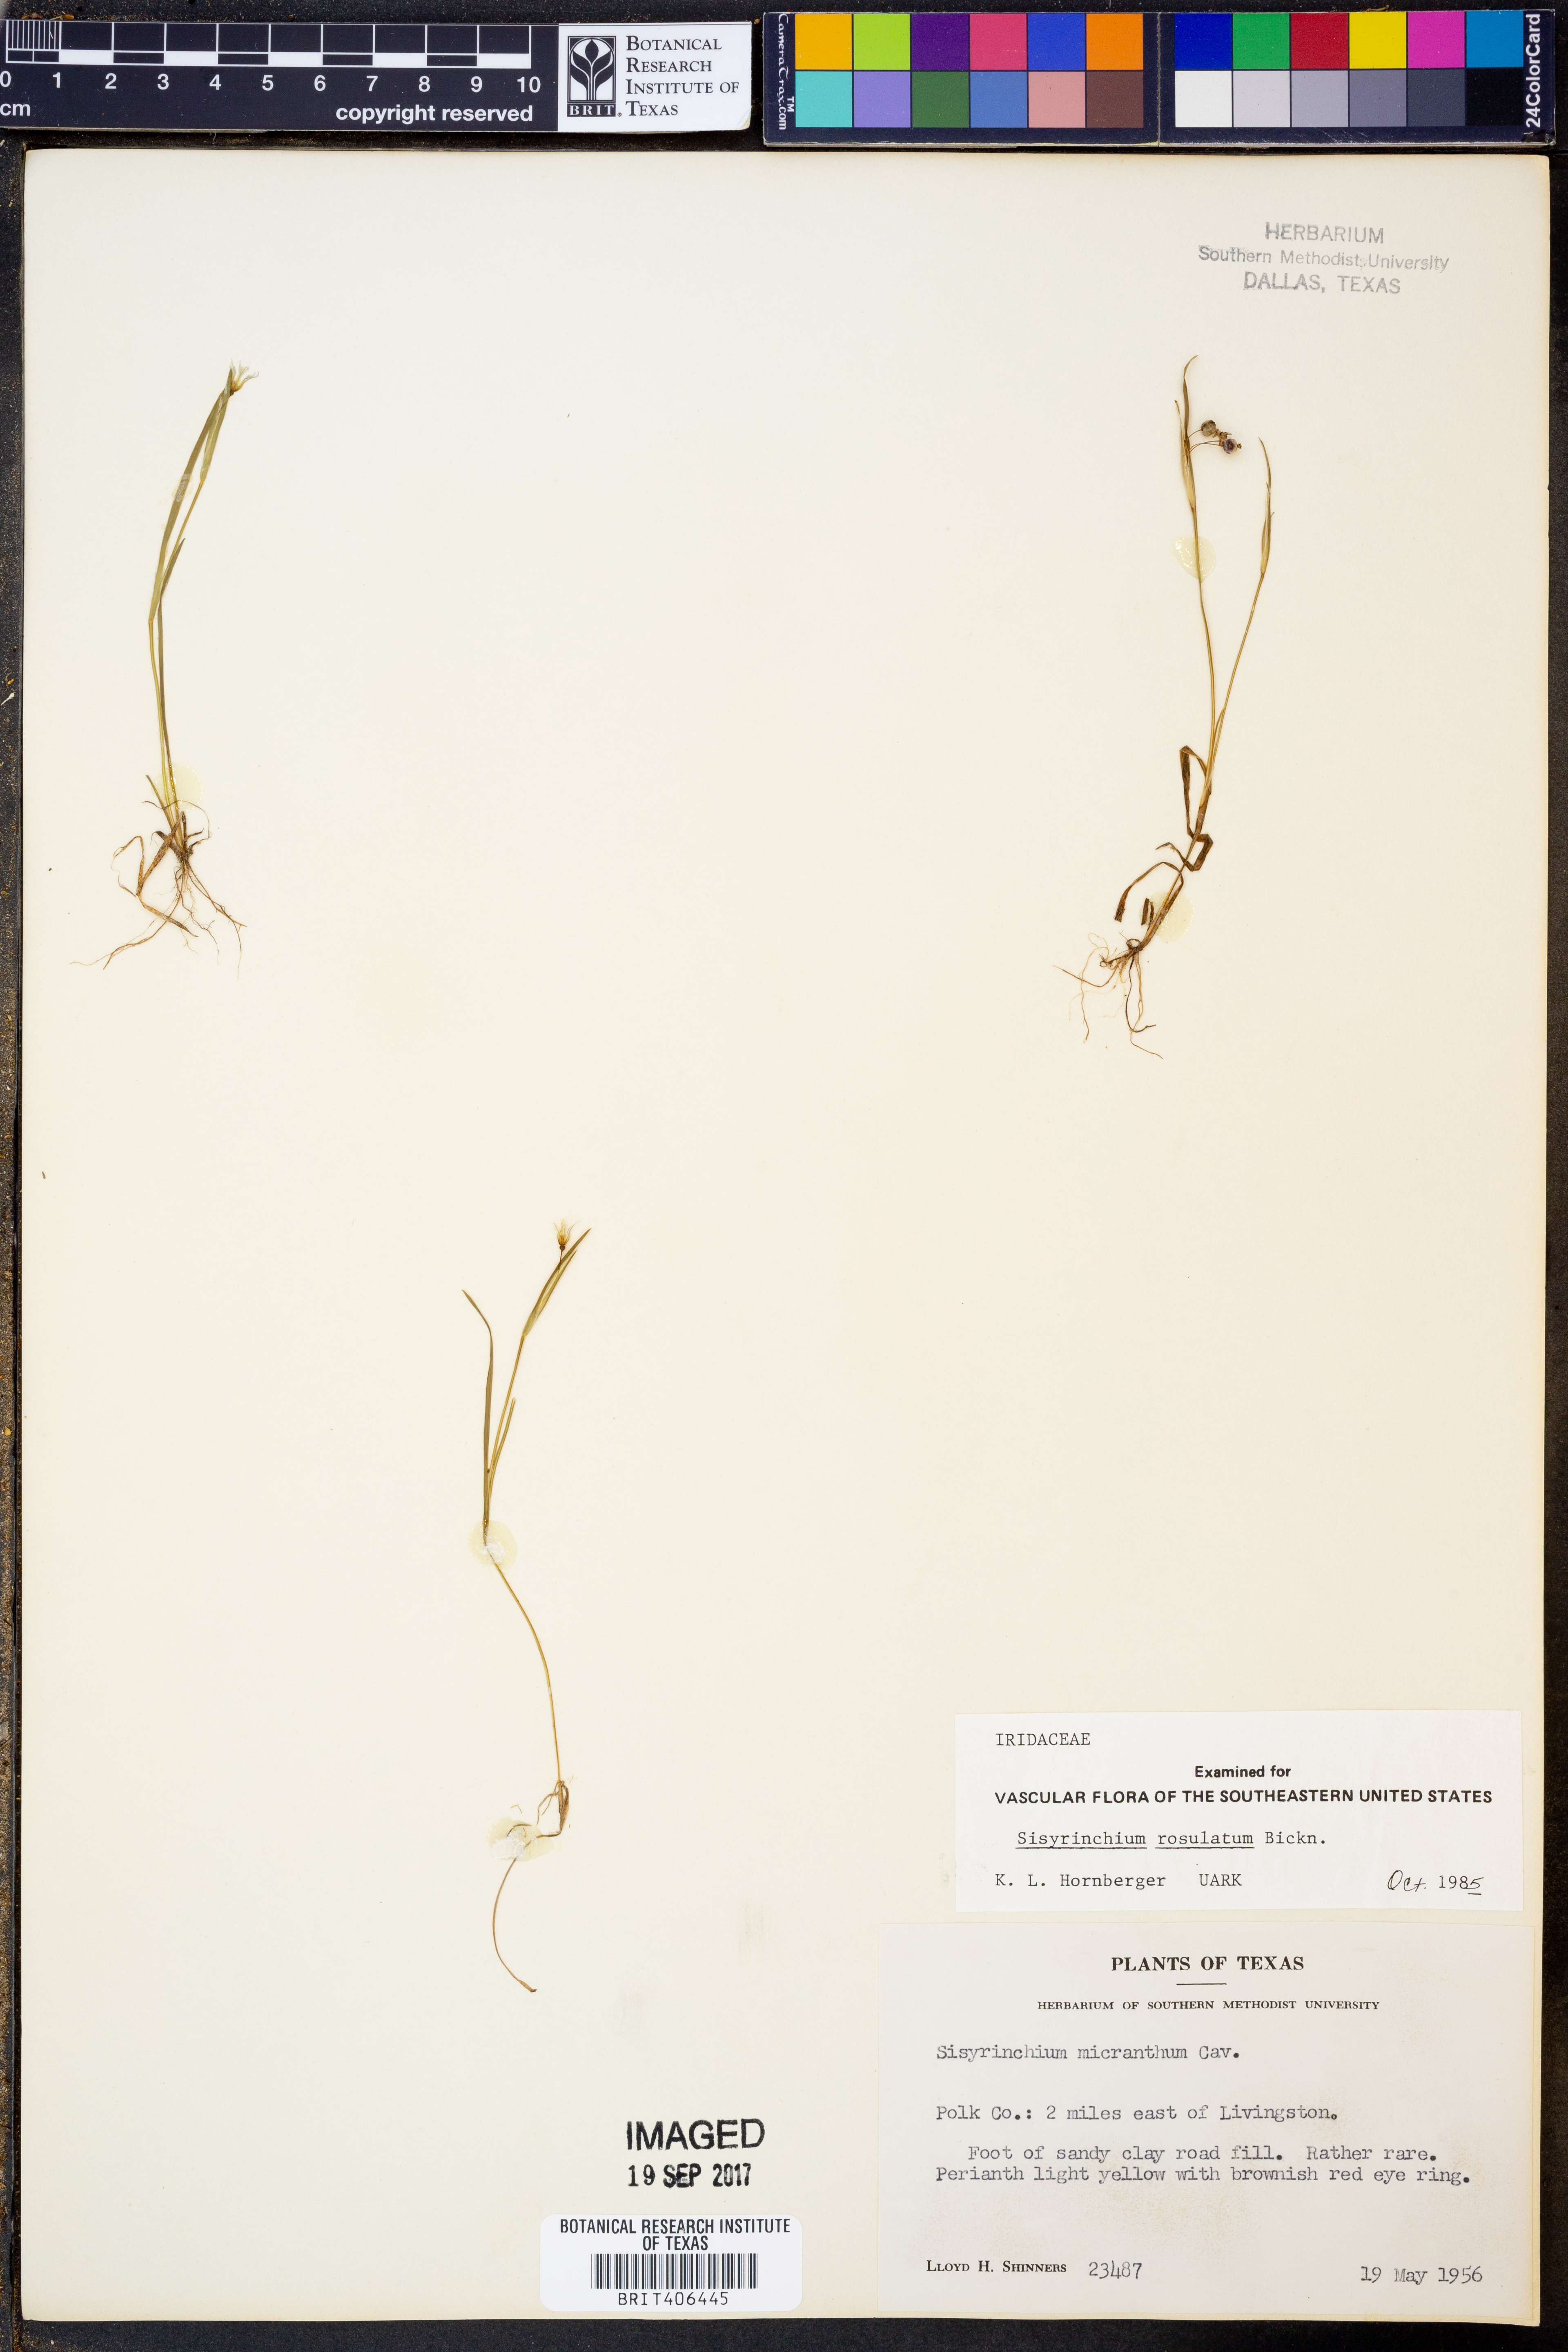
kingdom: Plantae
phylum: Tracheophyta
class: Liliopsida
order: Asparagales
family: Iridaceae
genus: Sisyrinchium
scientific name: Sisyrinchium rosulatum
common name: Annual blue-eyed grass
